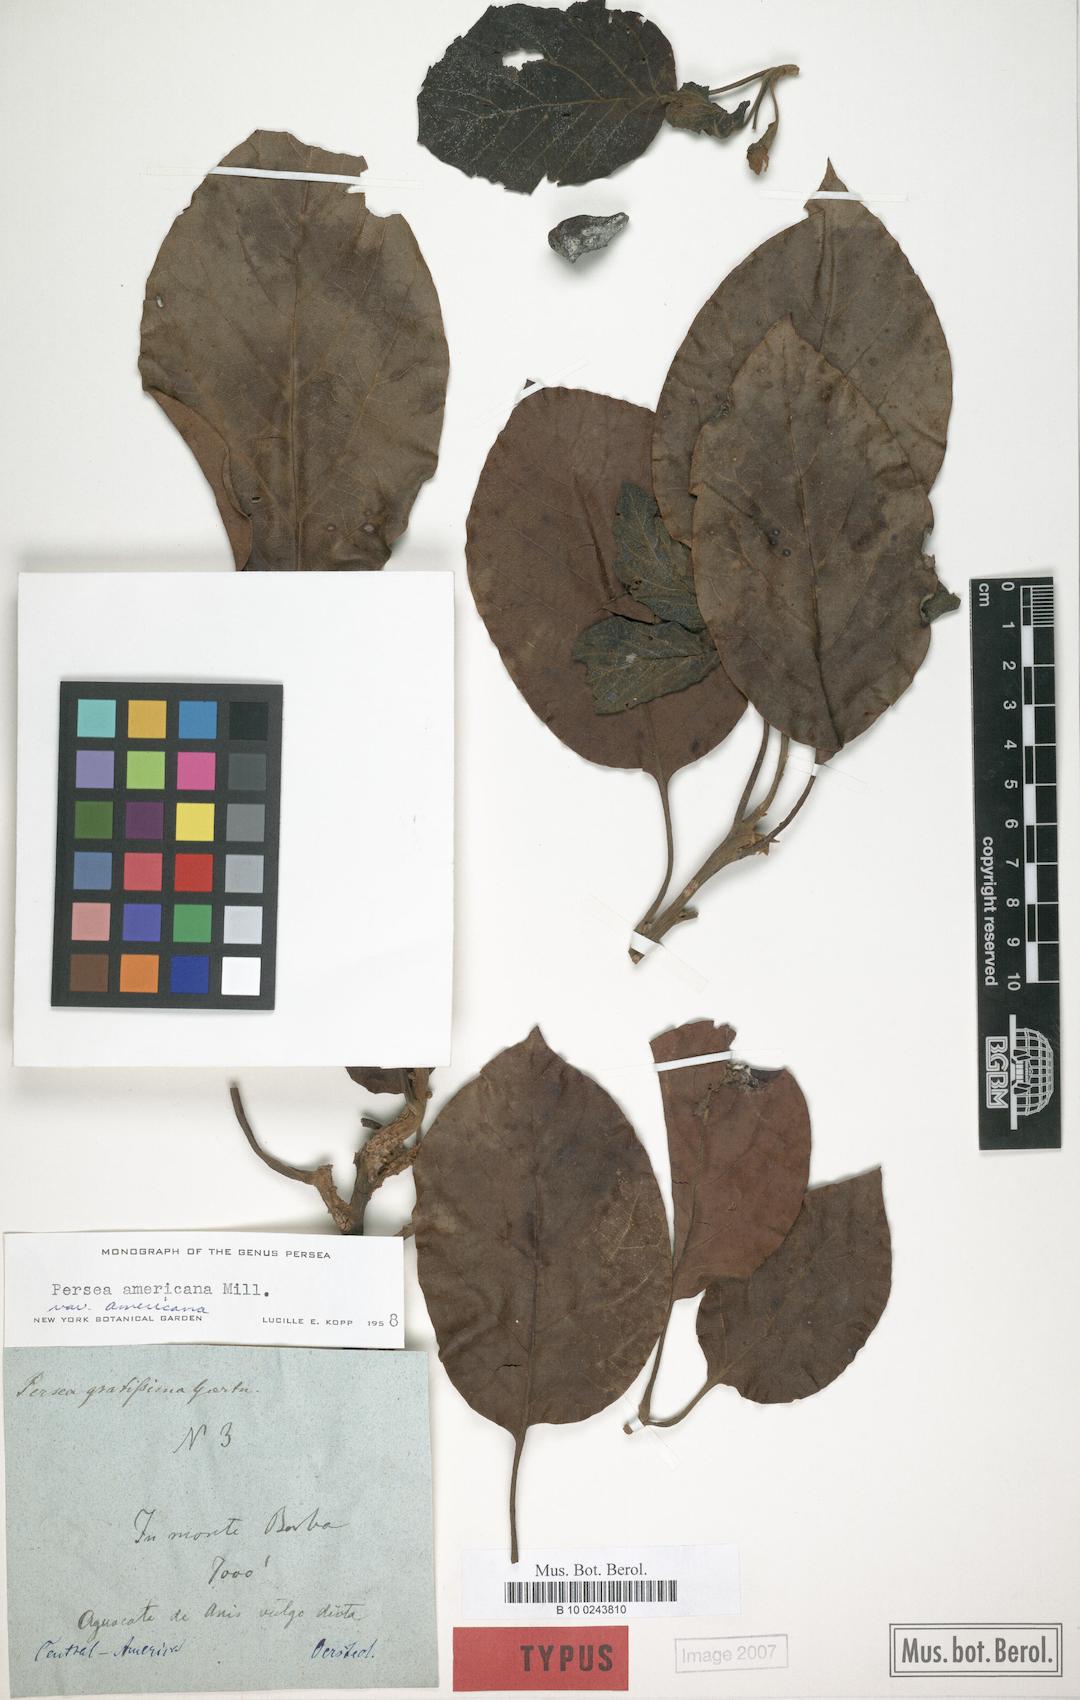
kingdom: Plantae
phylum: Tracheophyta
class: Magnoliopsida
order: Laurales
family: Lauraceae
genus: Persea
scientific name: Persea americana
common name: Avocado
